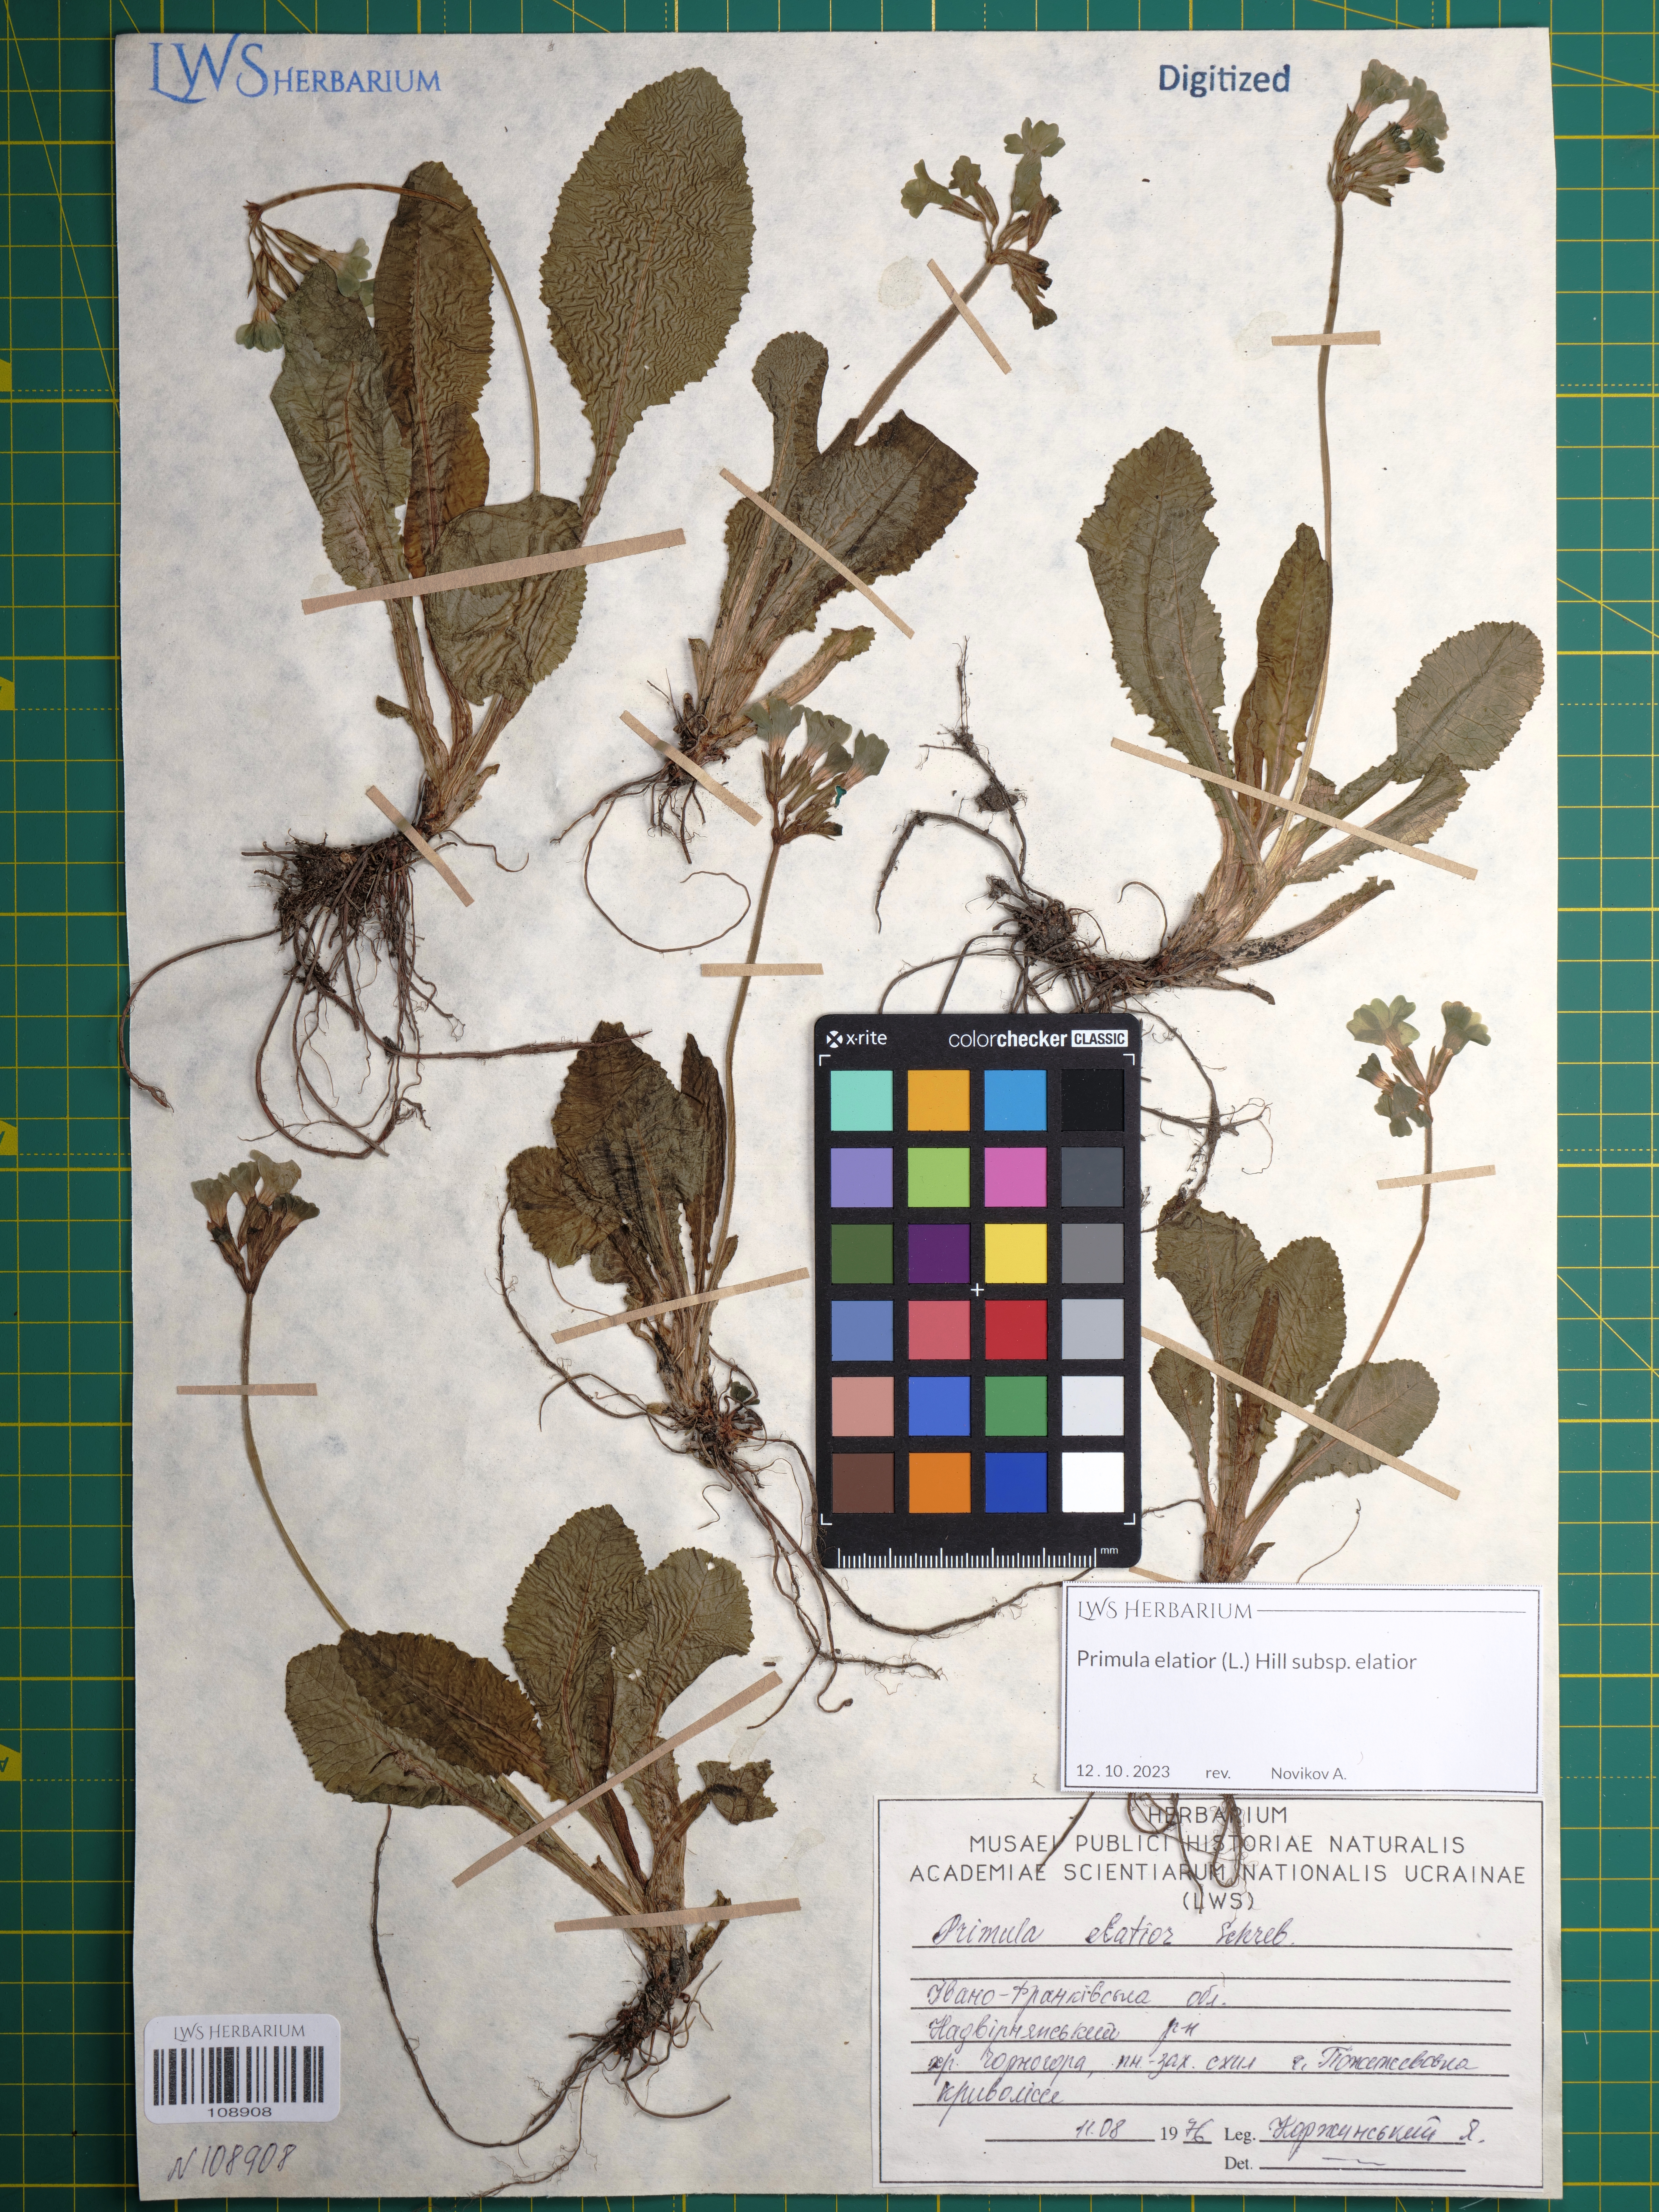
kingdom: Plantae
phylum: Tracheophyta
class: Magnoliopsida
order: Ericales
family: Primulaceae
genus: Primula
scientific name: Primula elatior
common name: Oxlip
